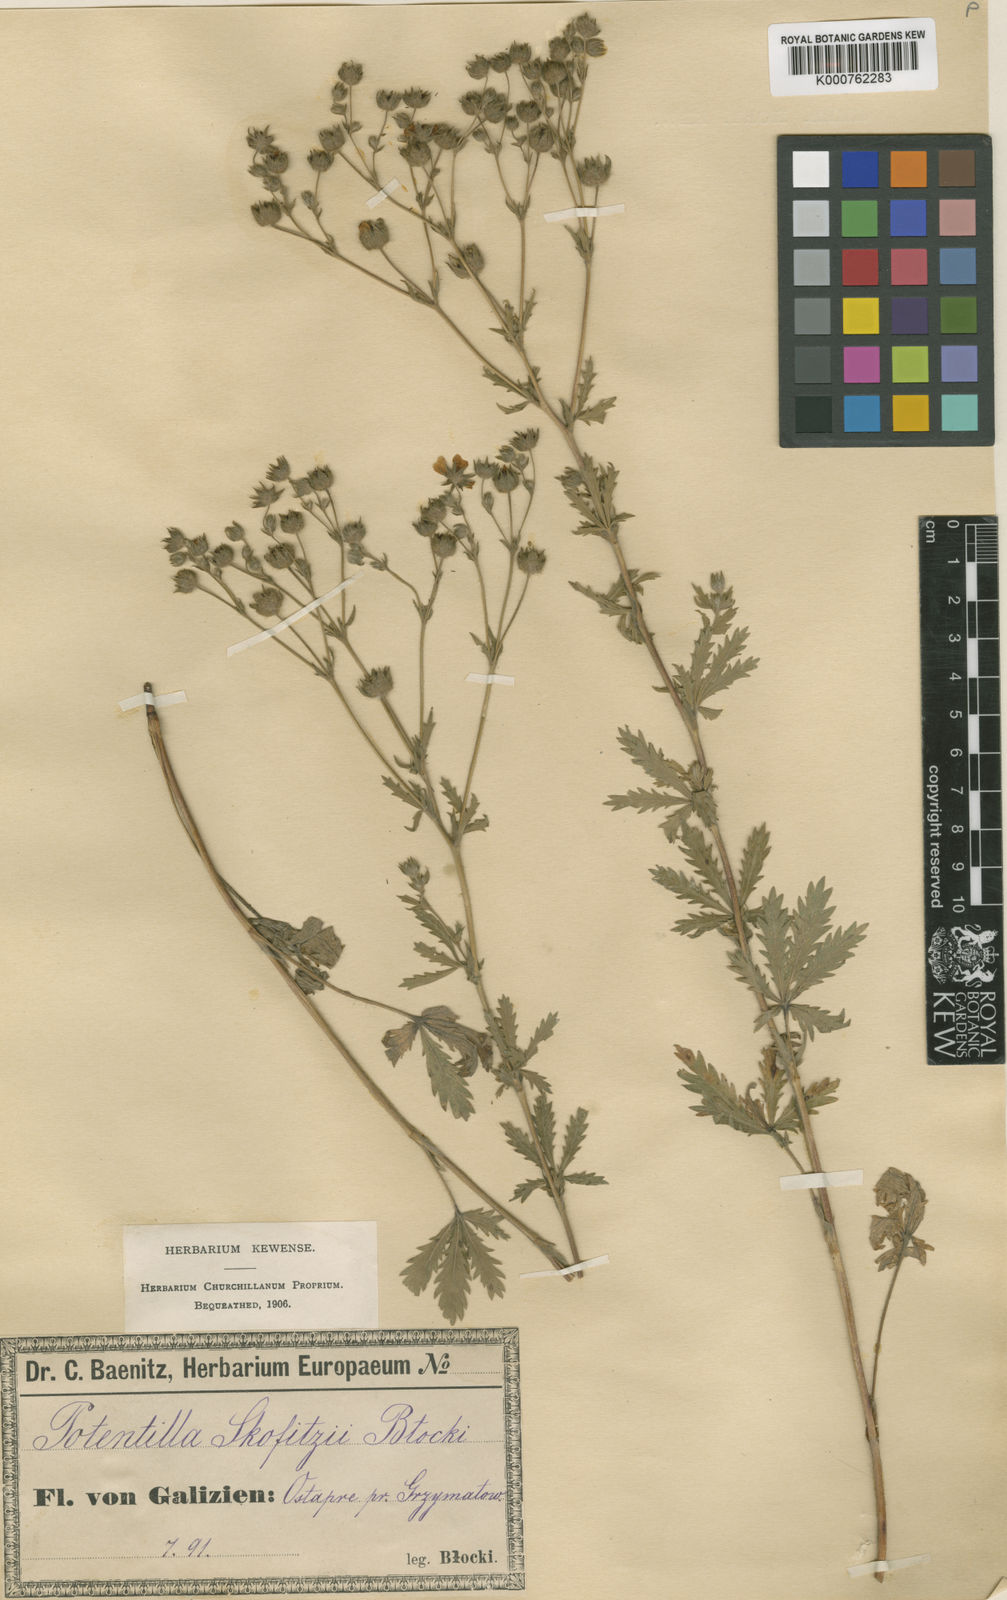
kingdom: Plantae
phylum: Tracheophyta
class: Magnoliopsida
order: Rosales
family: Rosaceae
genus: Potentilla
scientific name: Potentilla recta
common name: Sulphur cinquefoil
